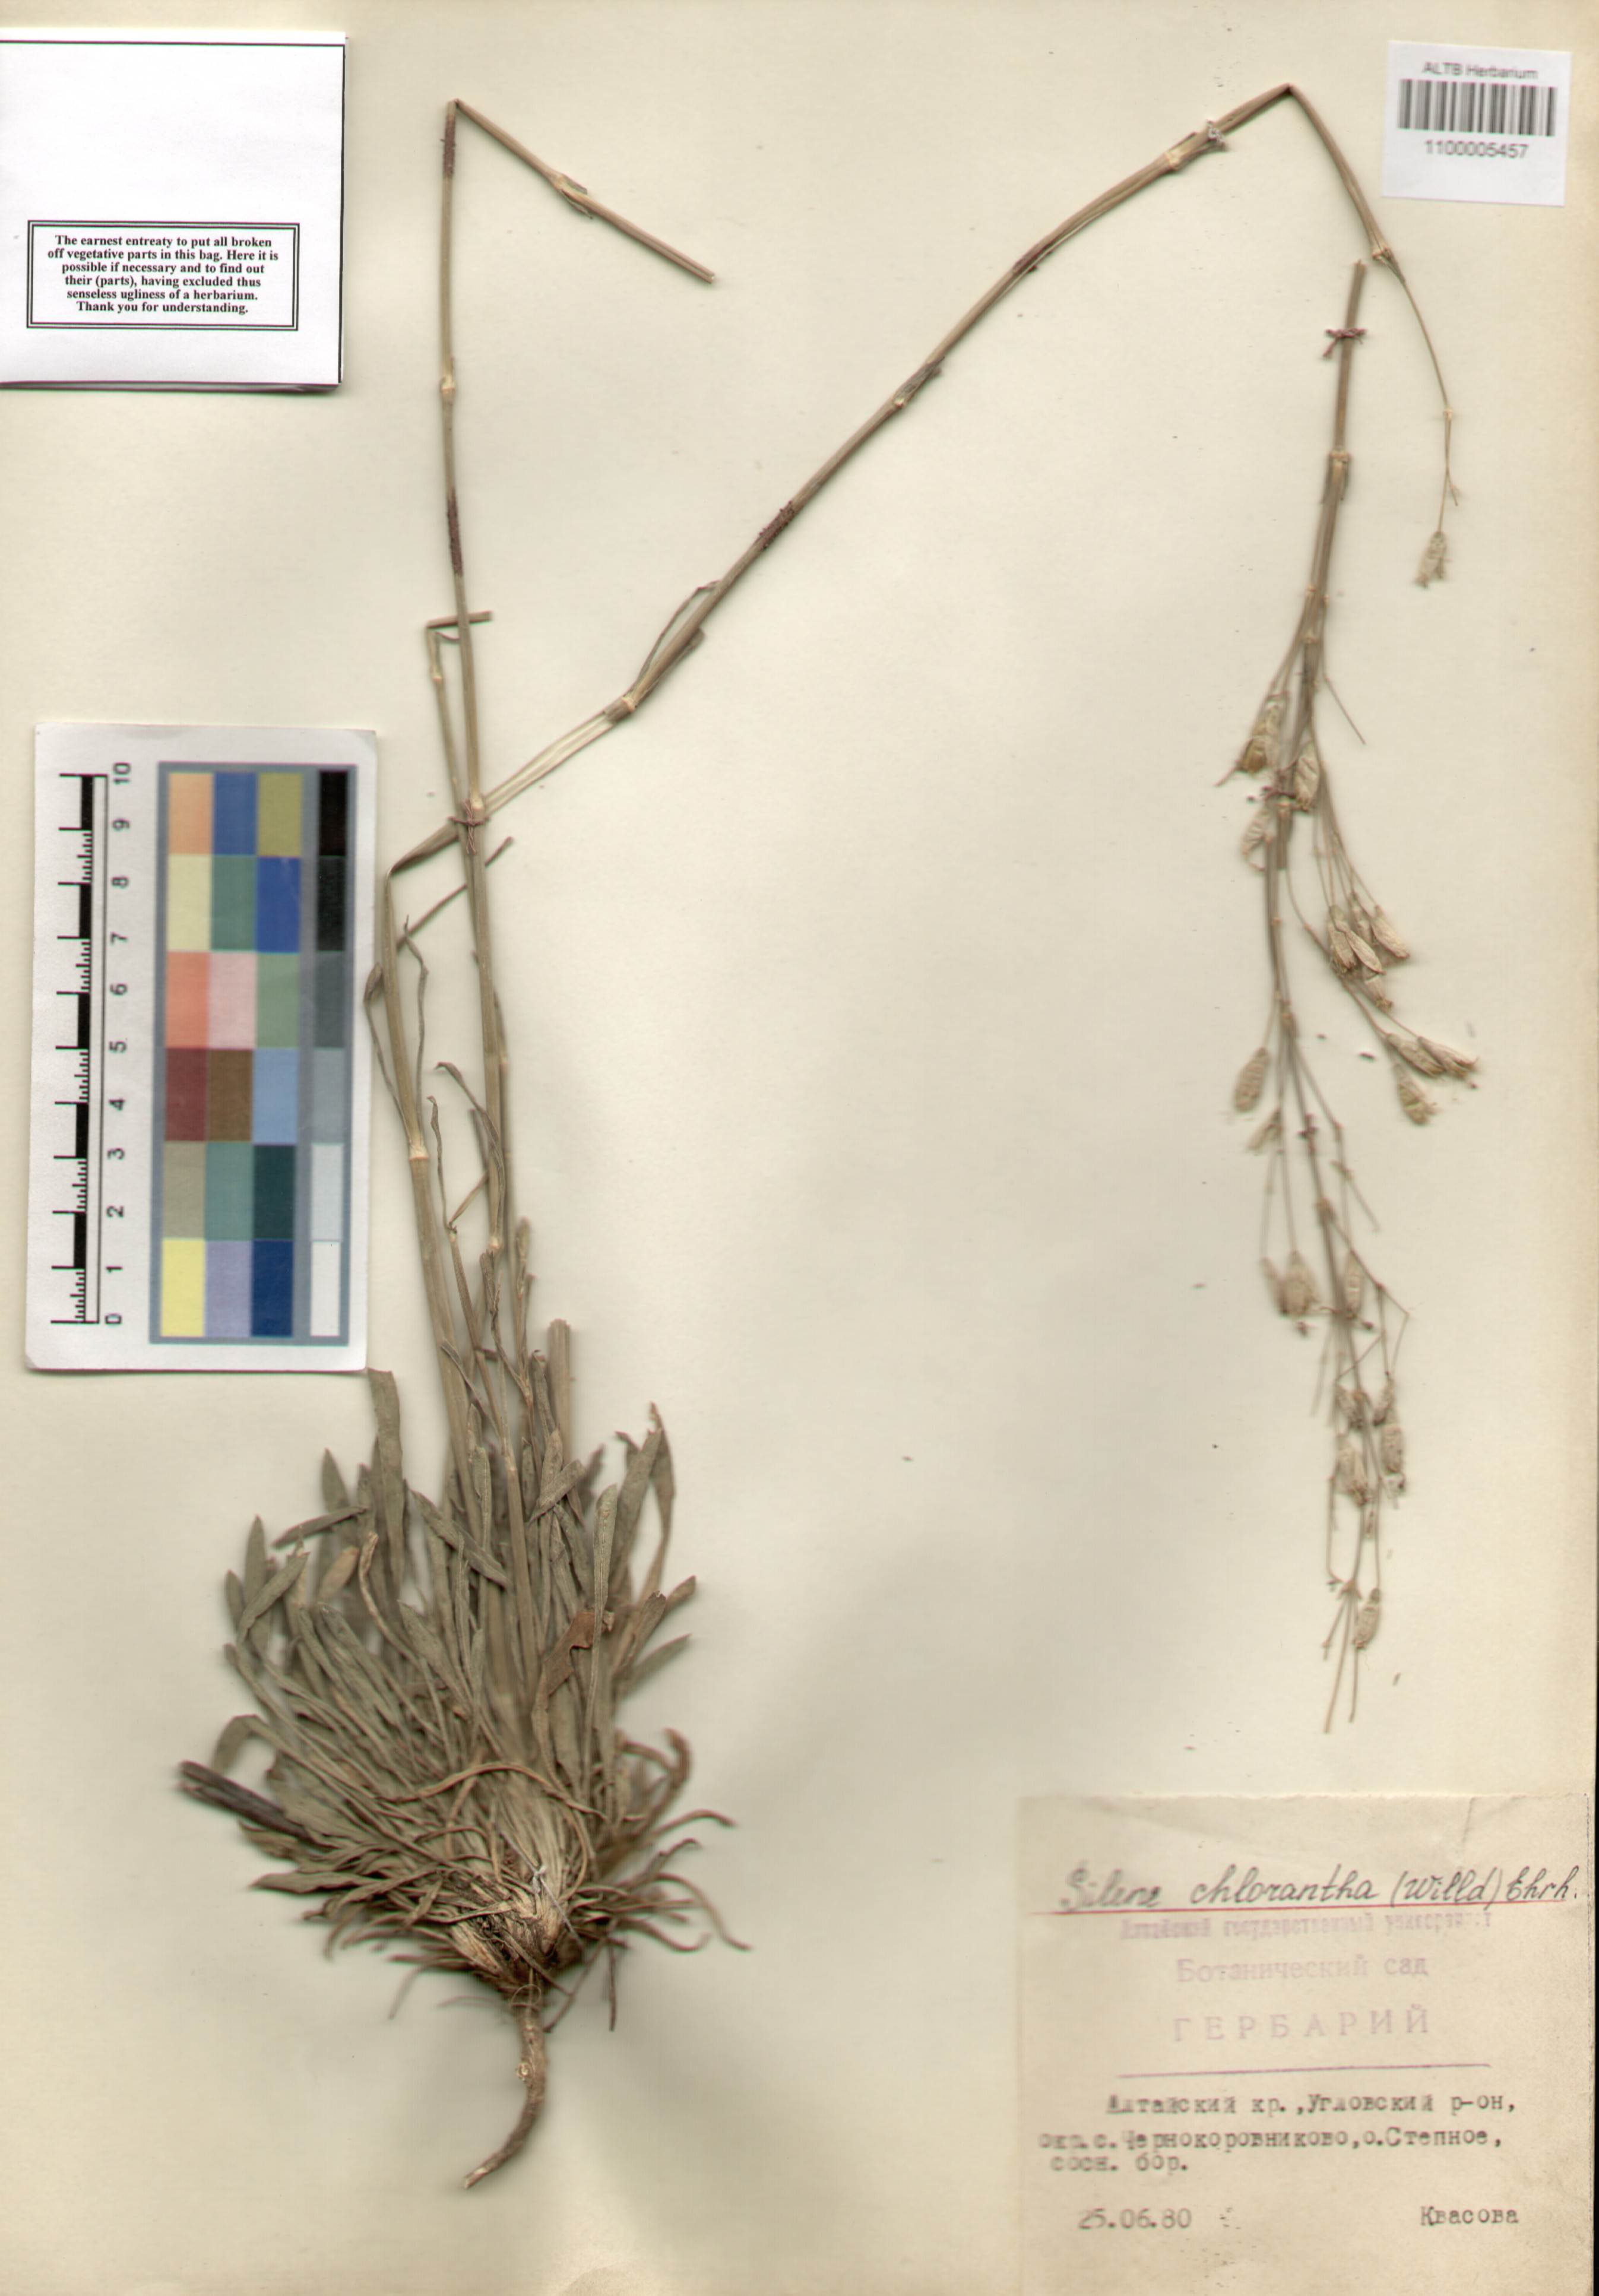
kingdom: Plantae
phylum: Tracheophyta
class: Magnoliopsida
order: Caryophyllales
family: Caryophyllaceae
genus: Silene
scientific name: Silene chlorantha
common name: Yellowgreen catchfly
